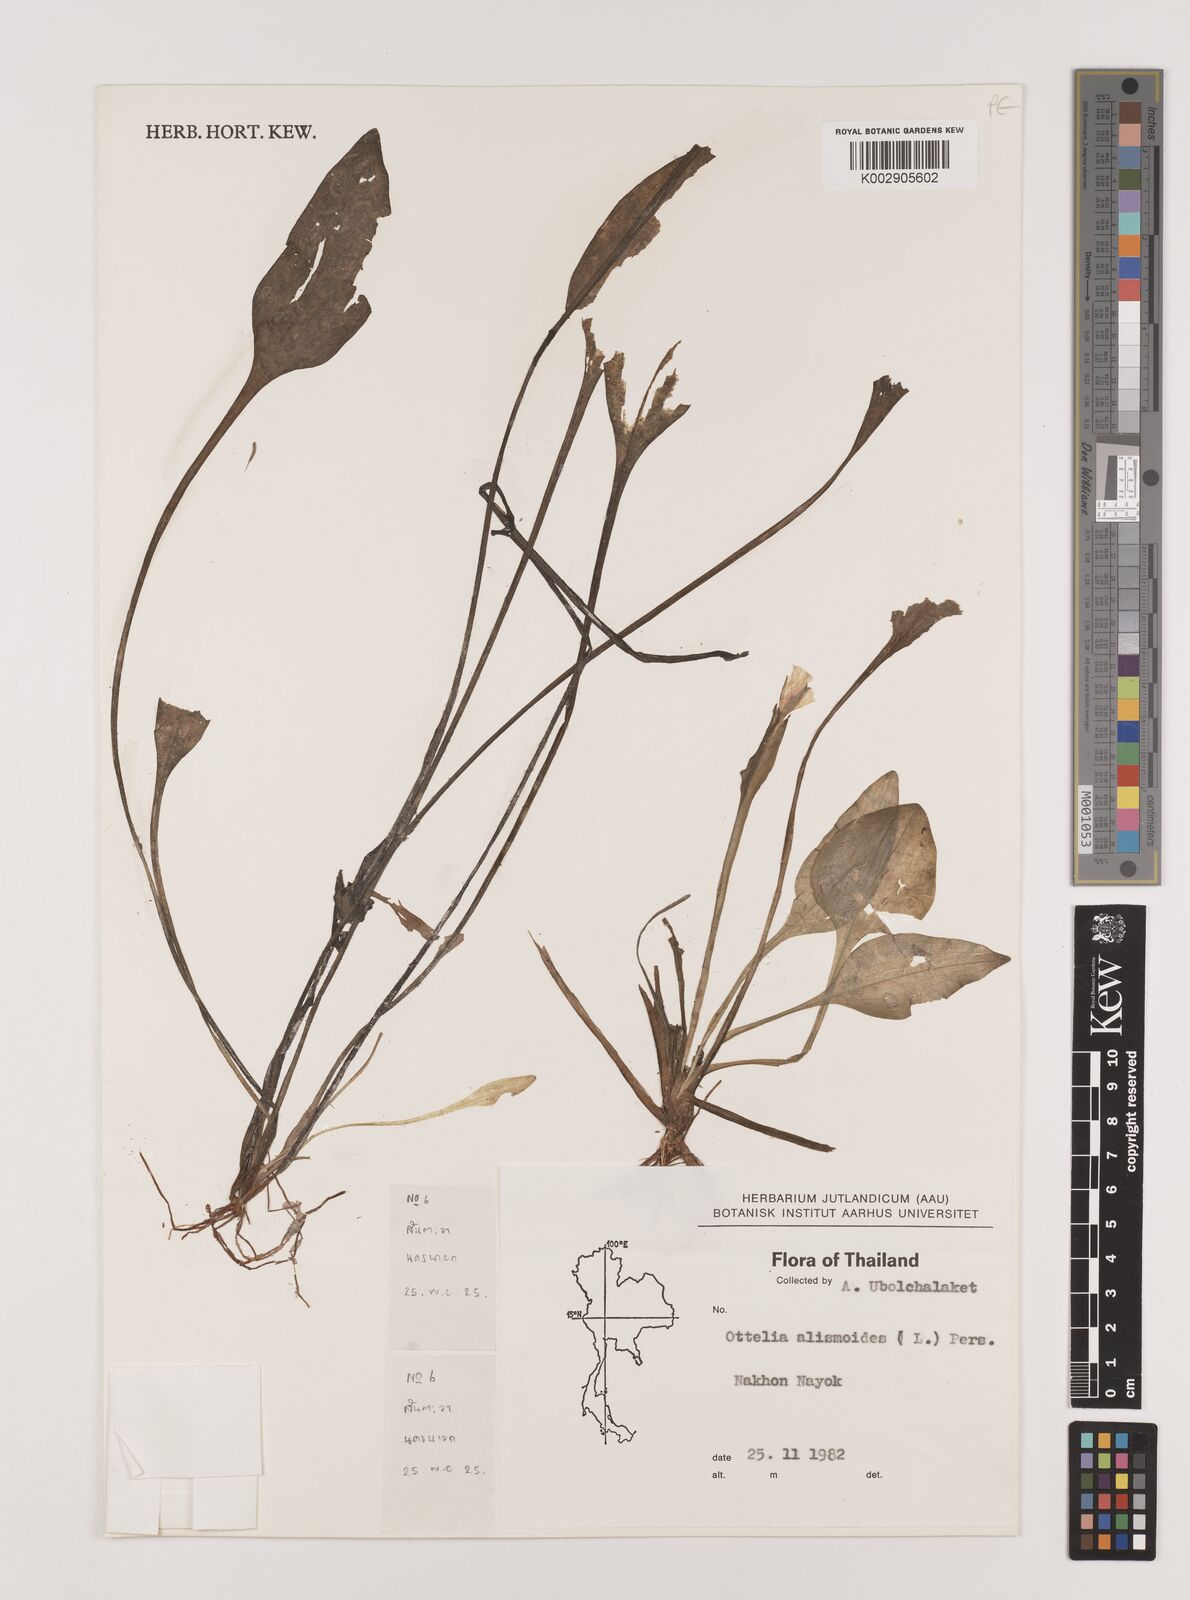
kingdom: Plantae
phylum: Tracheophyta
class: Liliopsida
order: Alismatales
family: Hydrocharitaceae
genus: Ottelia
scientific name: Ottelia alismoides
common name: Duck-lettuce
